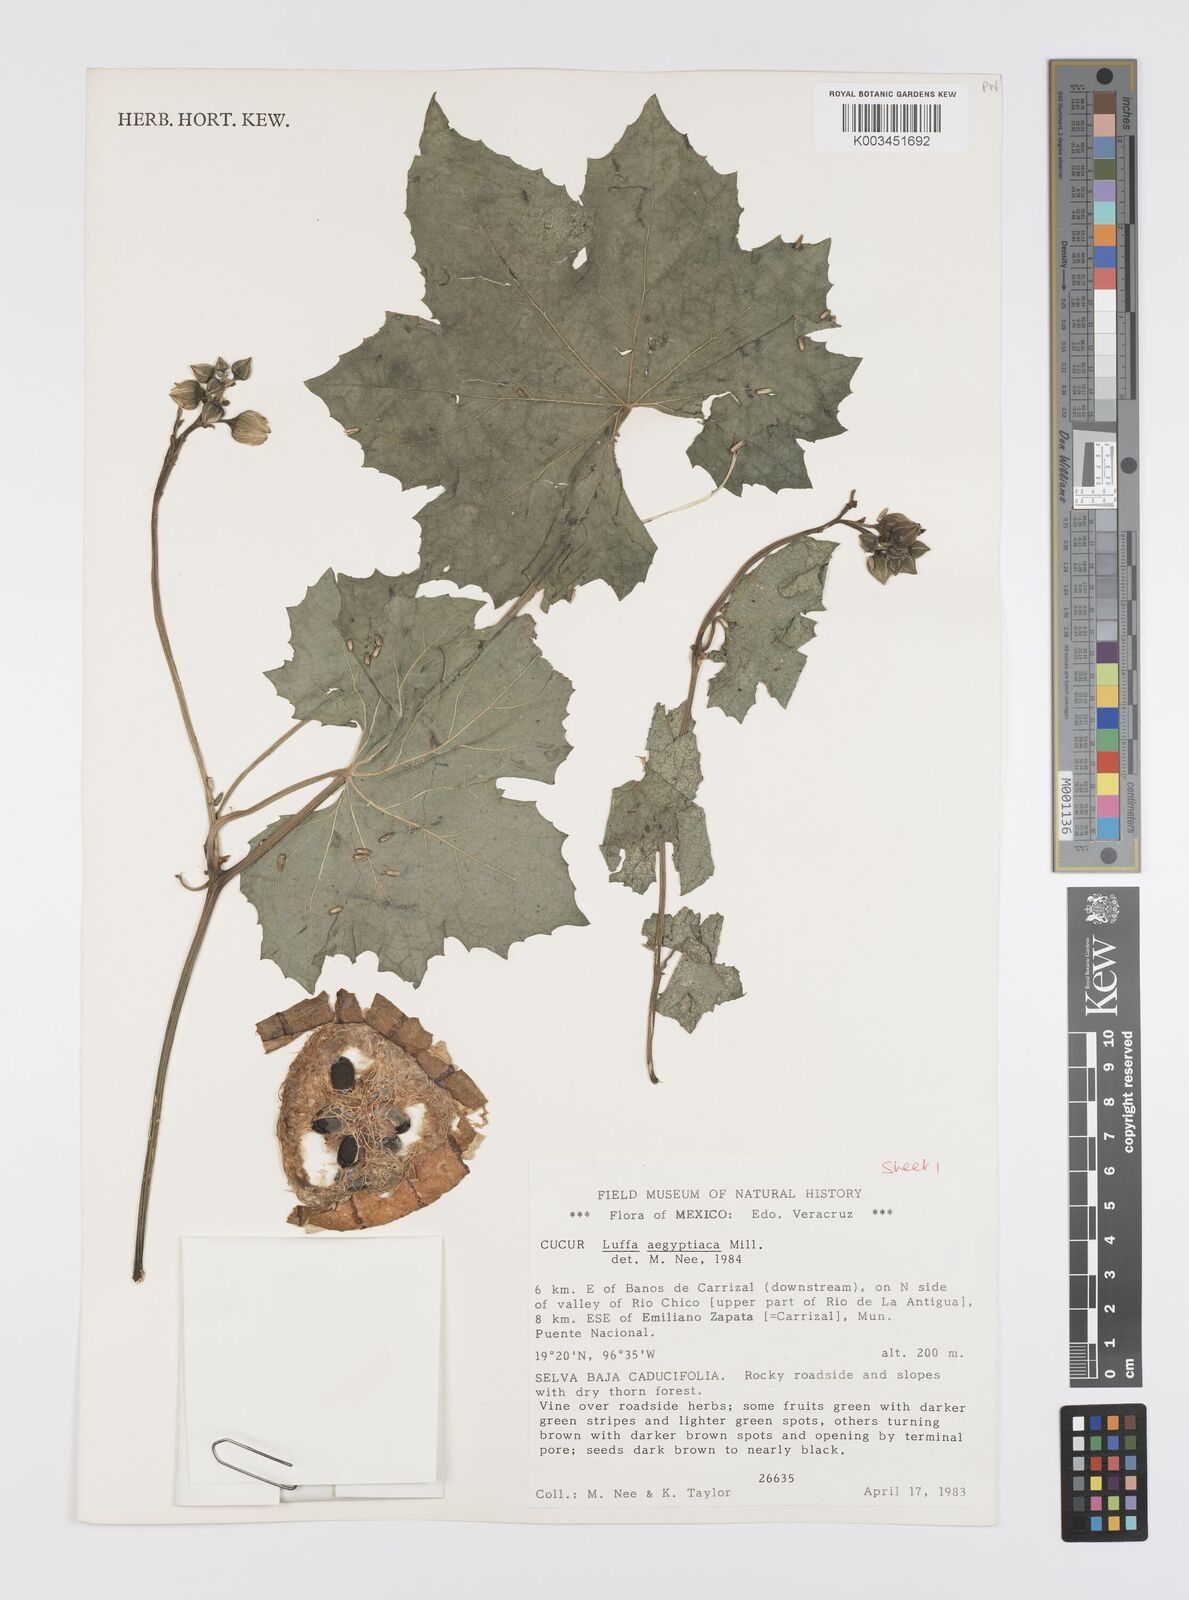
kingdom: Plantae
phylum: Tracheophyta
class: Magnoliopsida
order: Cucurbitales
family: Cucurbitaceae
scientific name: Cucurbitaceae
